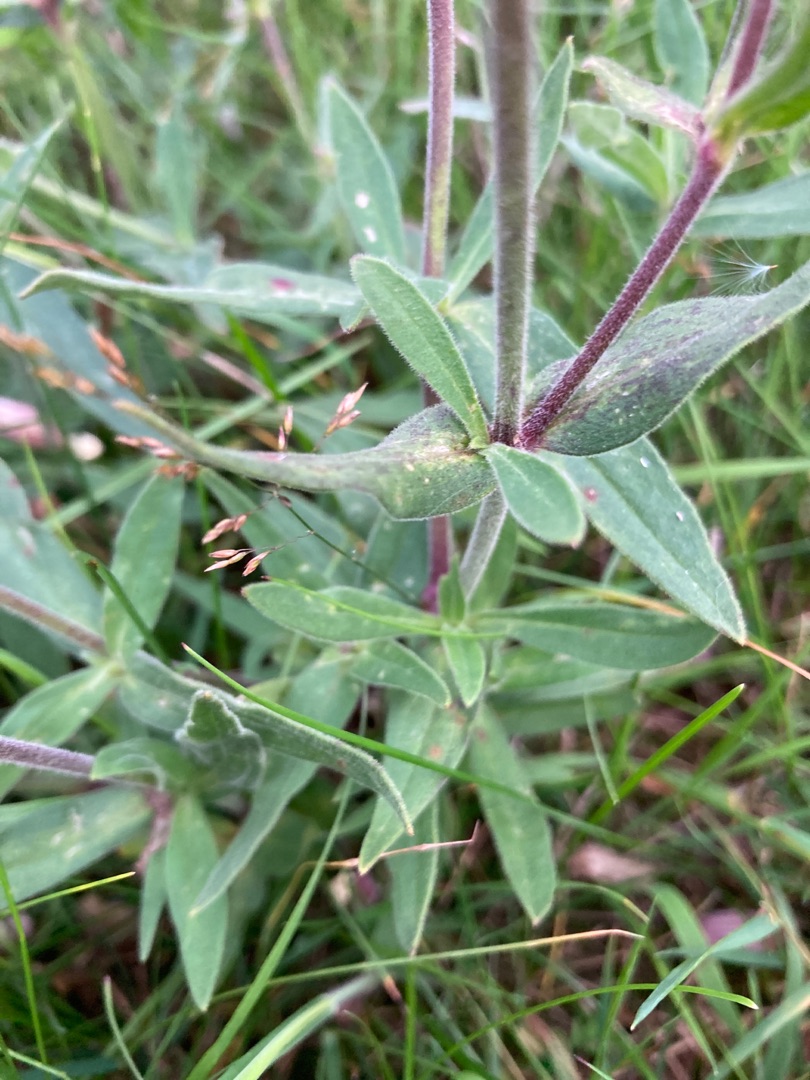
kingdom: Plantae
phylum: Tracheophyta
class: Magnoliopsida
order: Caryophyllales
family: Caryophyllaceae
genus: Silene
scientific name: Silene latifolia
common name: Aftenpragtstjerne
